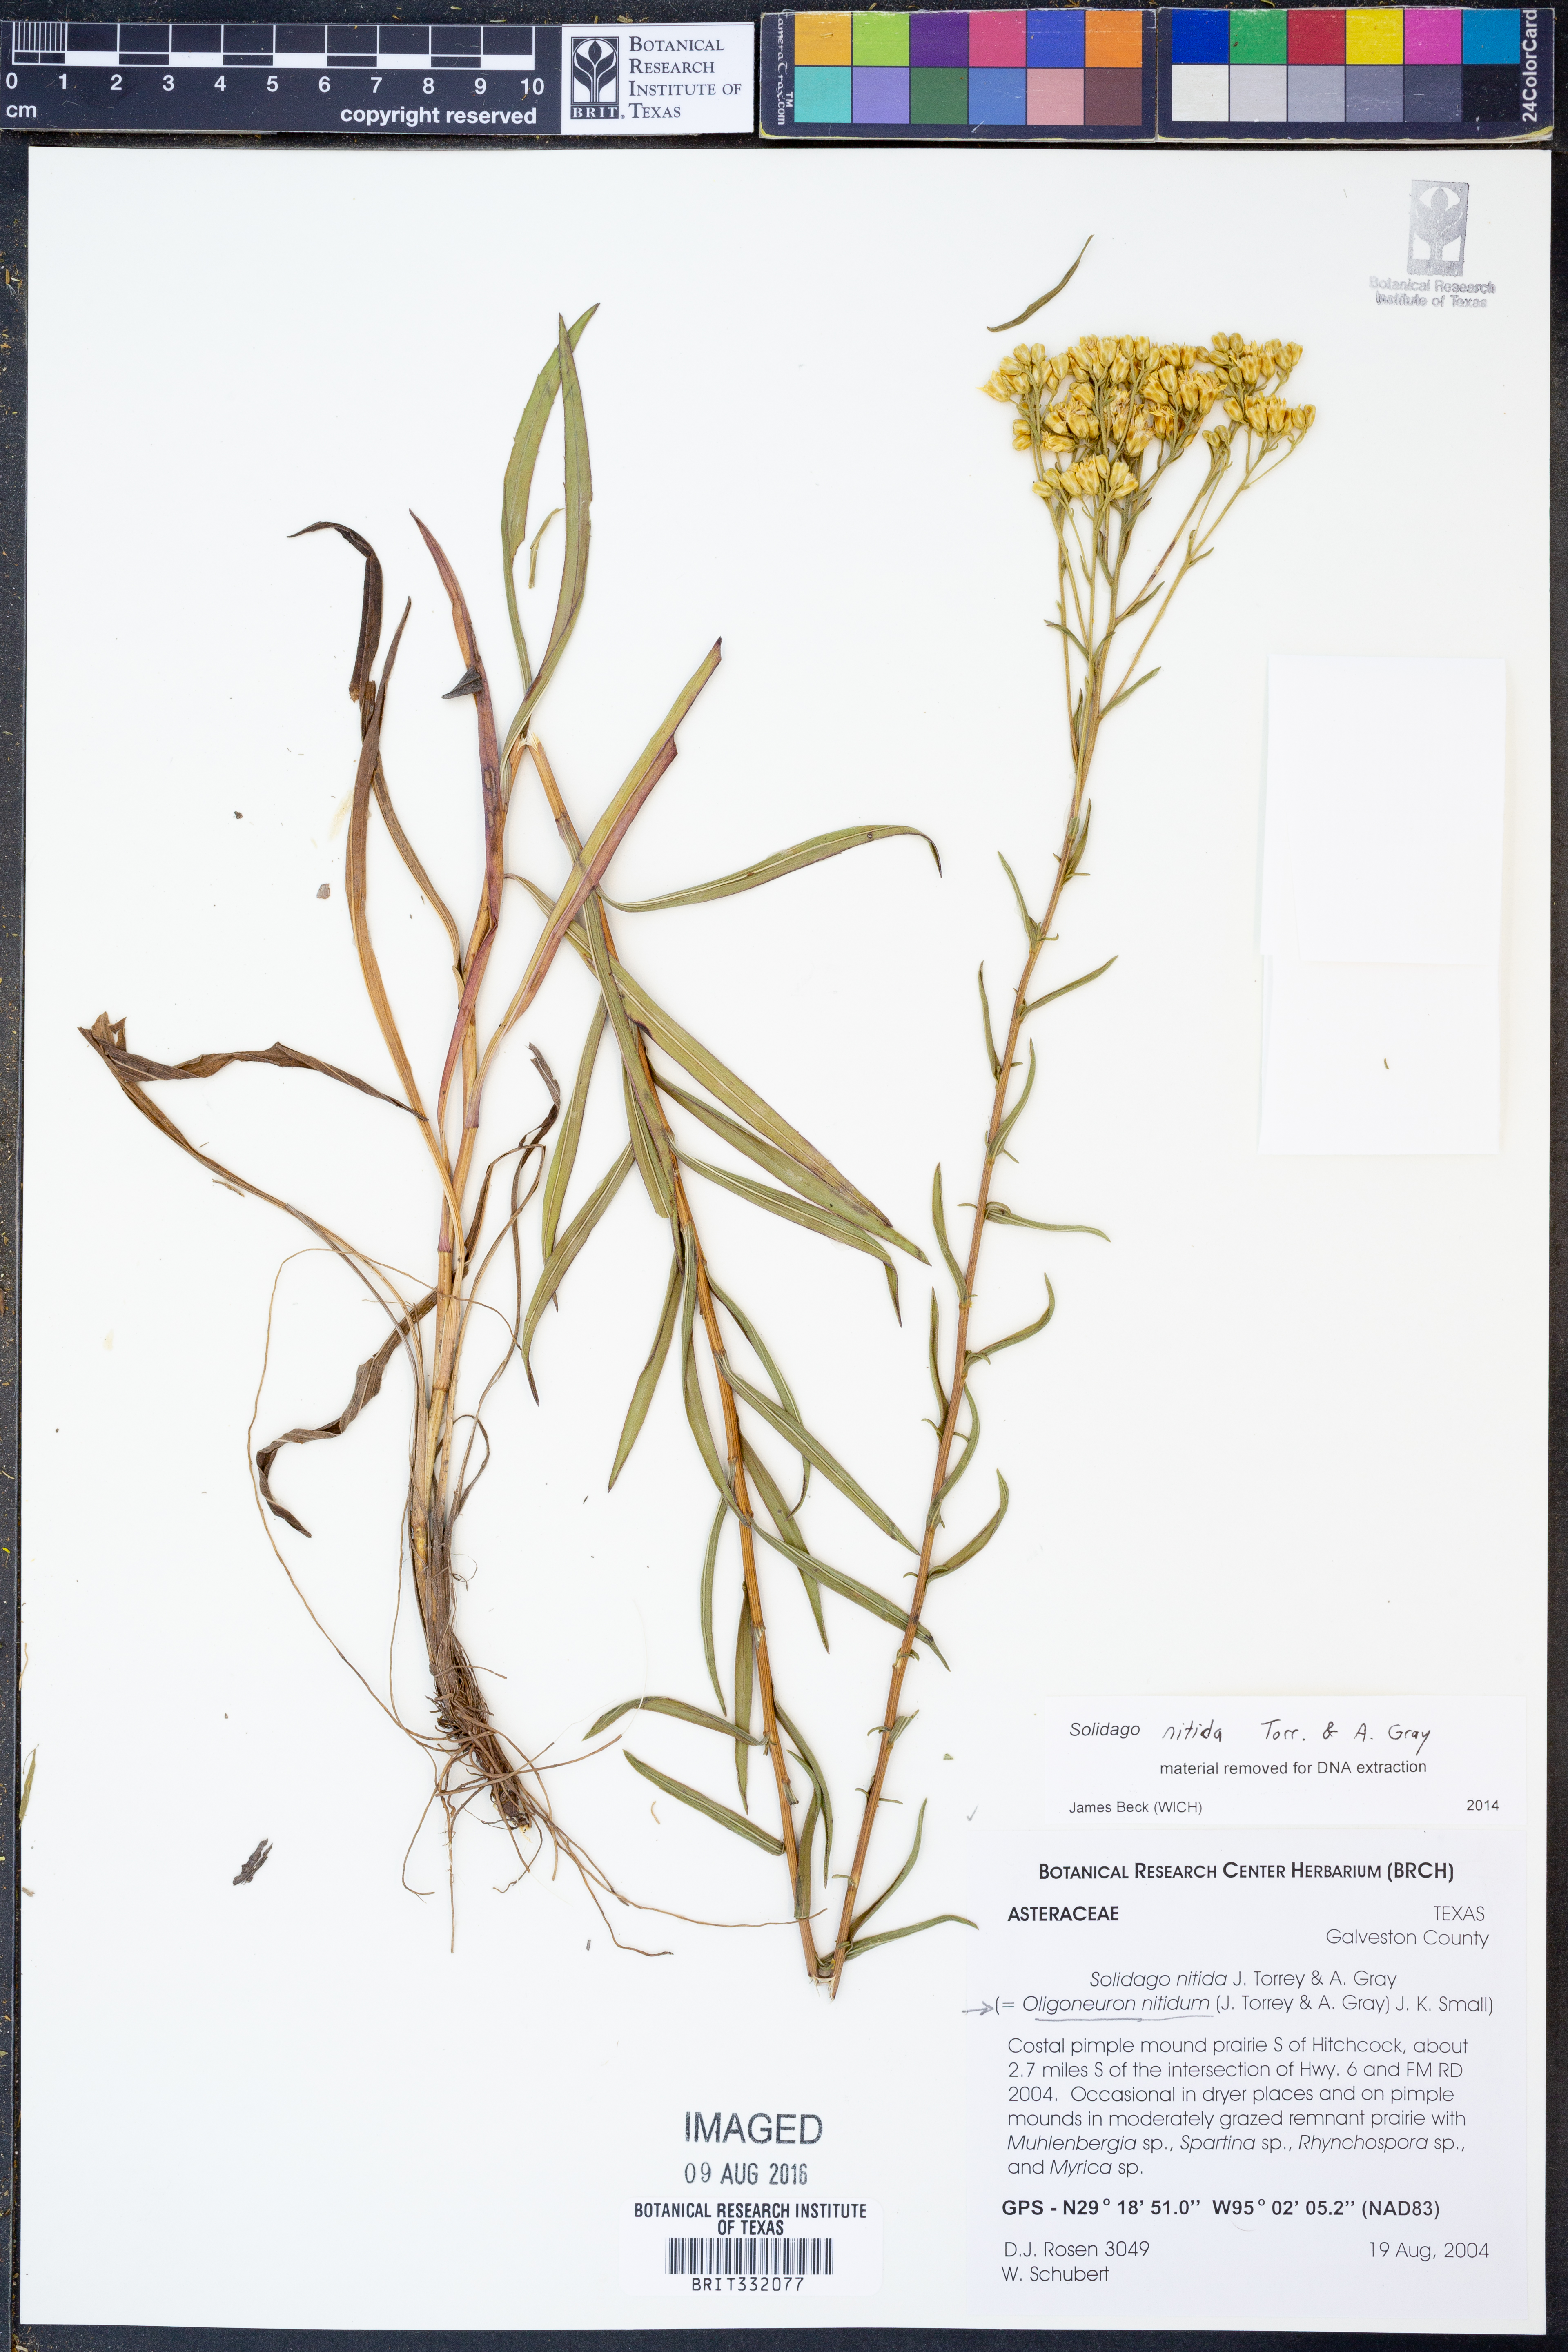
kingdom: Plantae
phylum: Tracheophyta
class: Magnoliopsida
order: Asterales
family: Asteraceae
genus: Solidago
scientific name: Solidago nitida
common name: Shiny goldenrod
